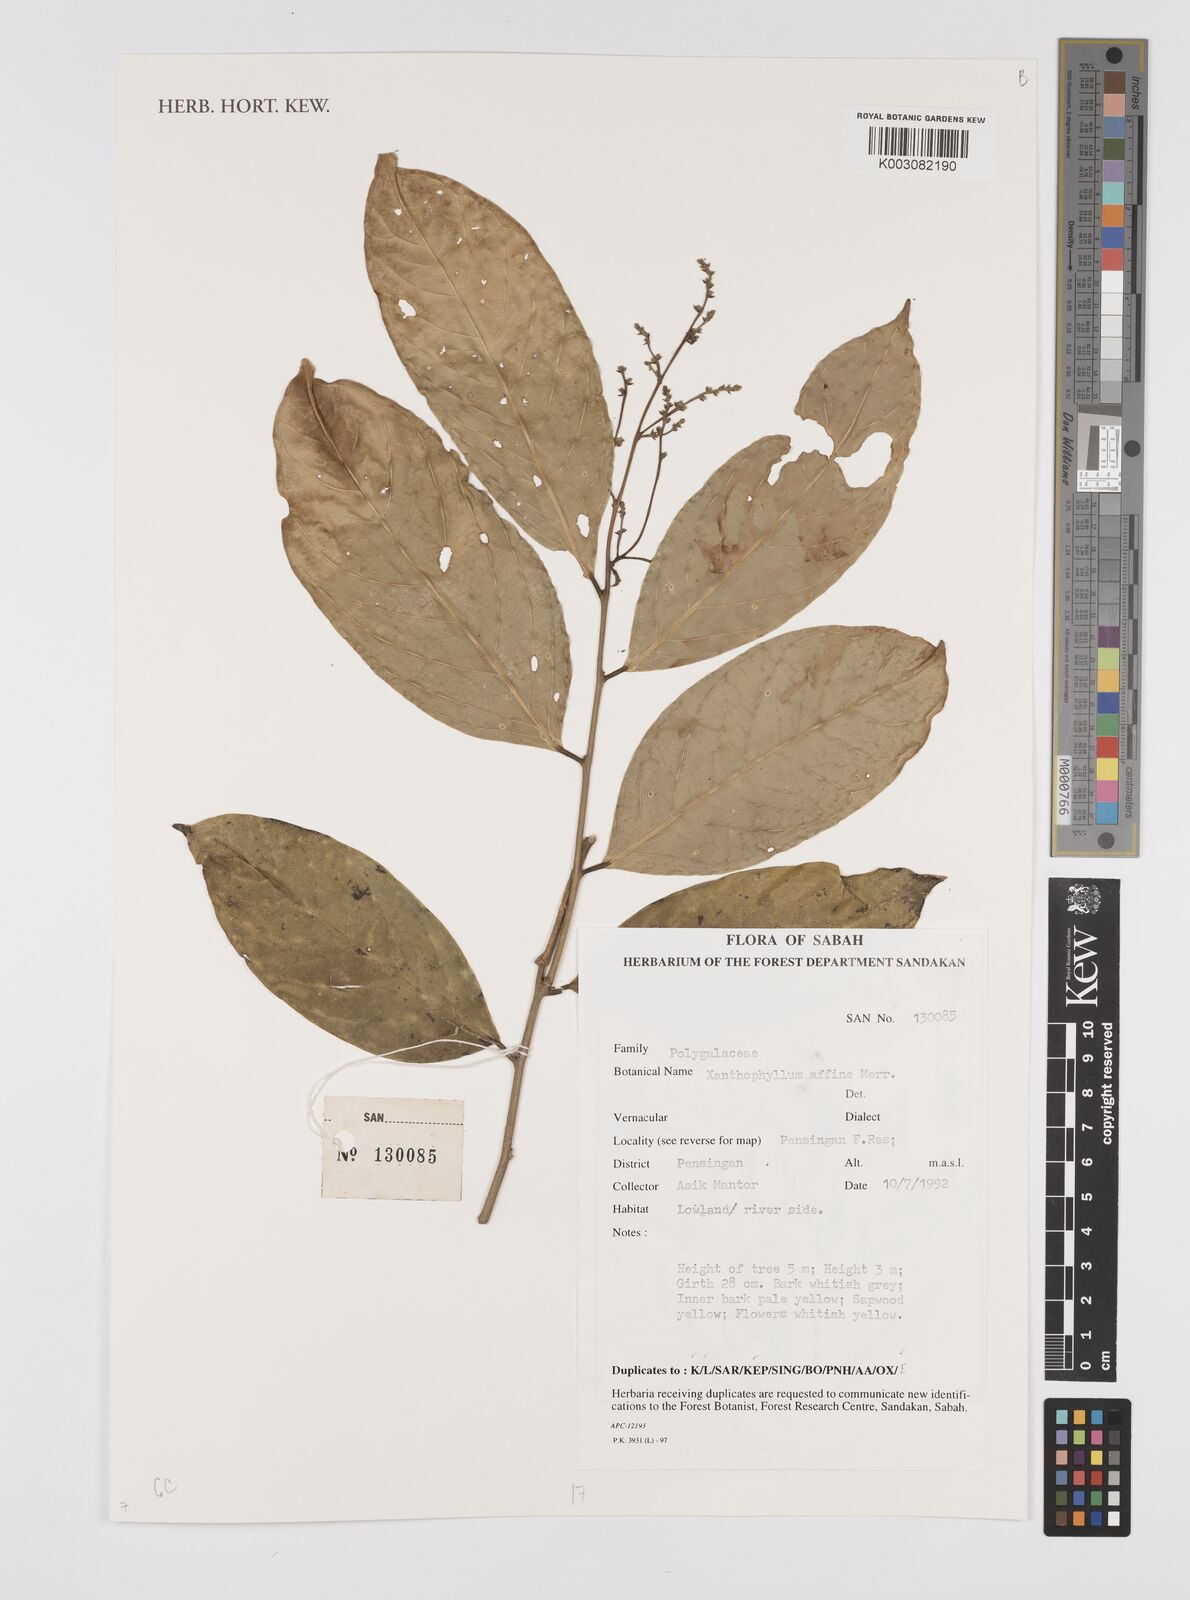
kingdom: Plantae
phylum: Tracheophyta
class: Magnoliopsida
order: Fabales
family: Polygalaceae
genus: Xanthophyllum
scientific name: Xanthophyllum flavescens
